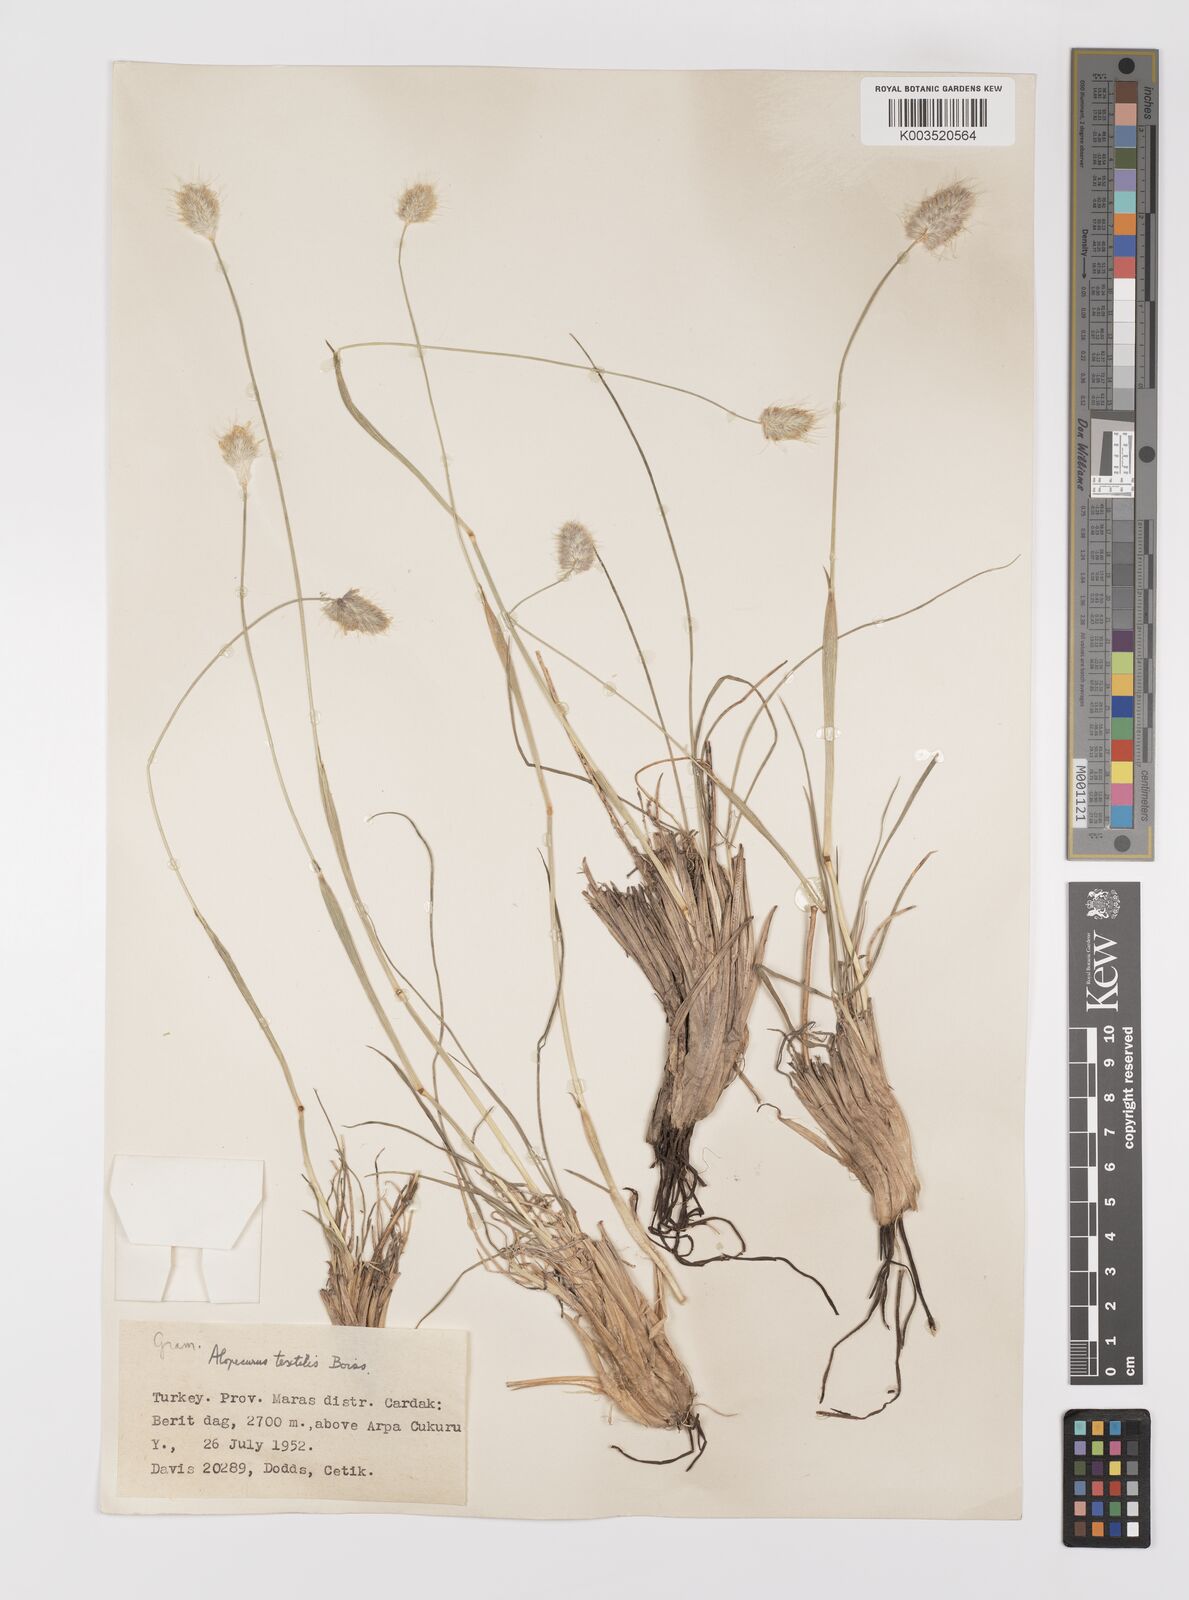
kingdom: Plantae
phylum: Tracheophyta
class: Liliopsida
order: Poales
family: Poaceae
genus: Alopecurus
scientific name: Alopecurus textilis
